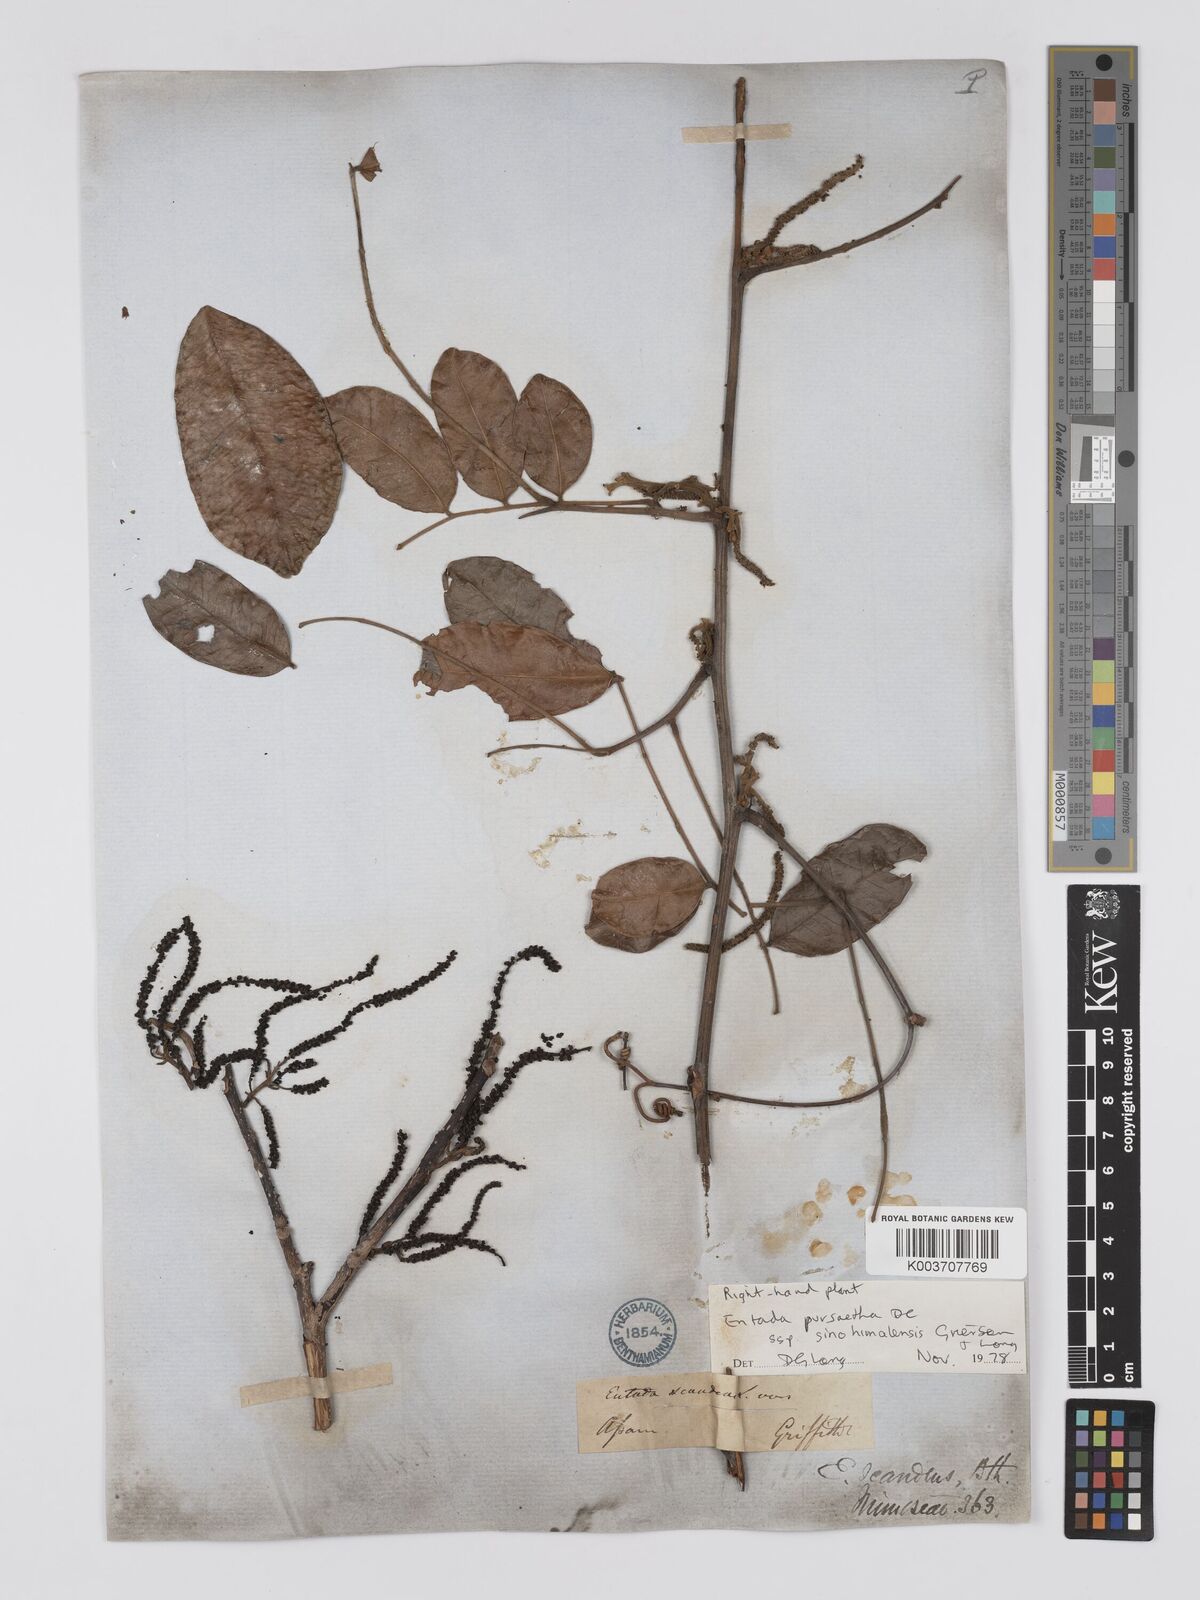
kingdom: Plantae
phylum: Tracheophyta
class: Magnoliopsida
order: Fabales
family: Fabaceae
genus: Entada
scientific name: Entada
